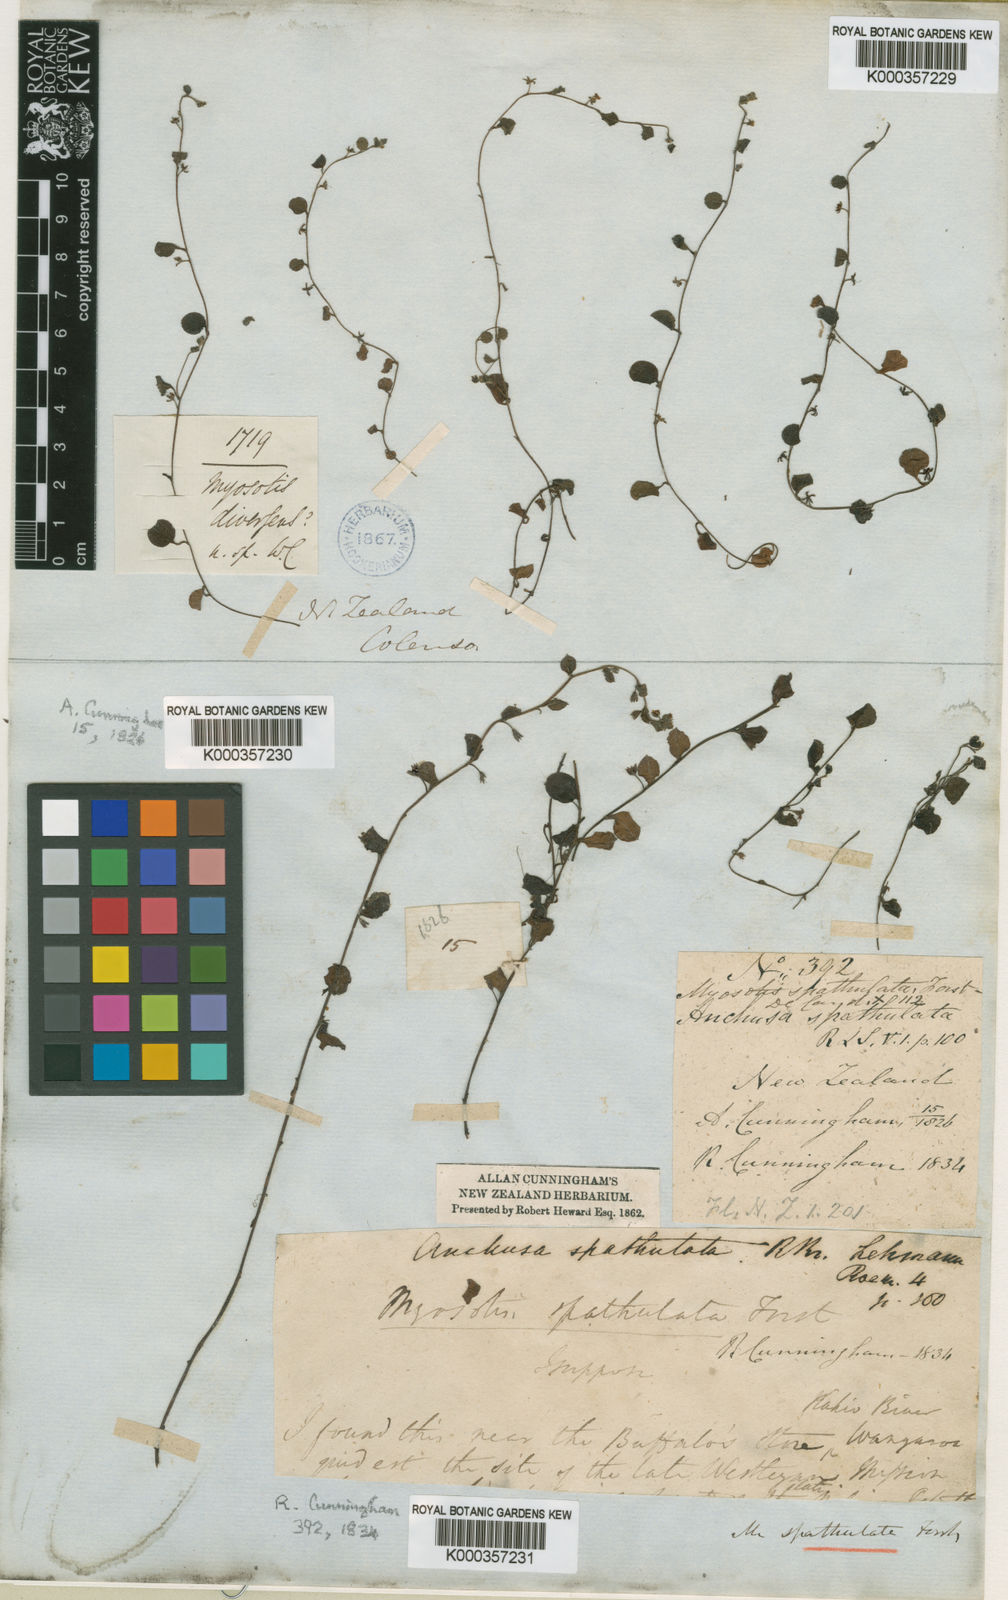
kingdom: Plantae
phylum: Tracheophyta
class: Magnoliopsida
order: Boraginales
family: Boraginaceae
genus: Myosotis
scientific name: Myosotis
